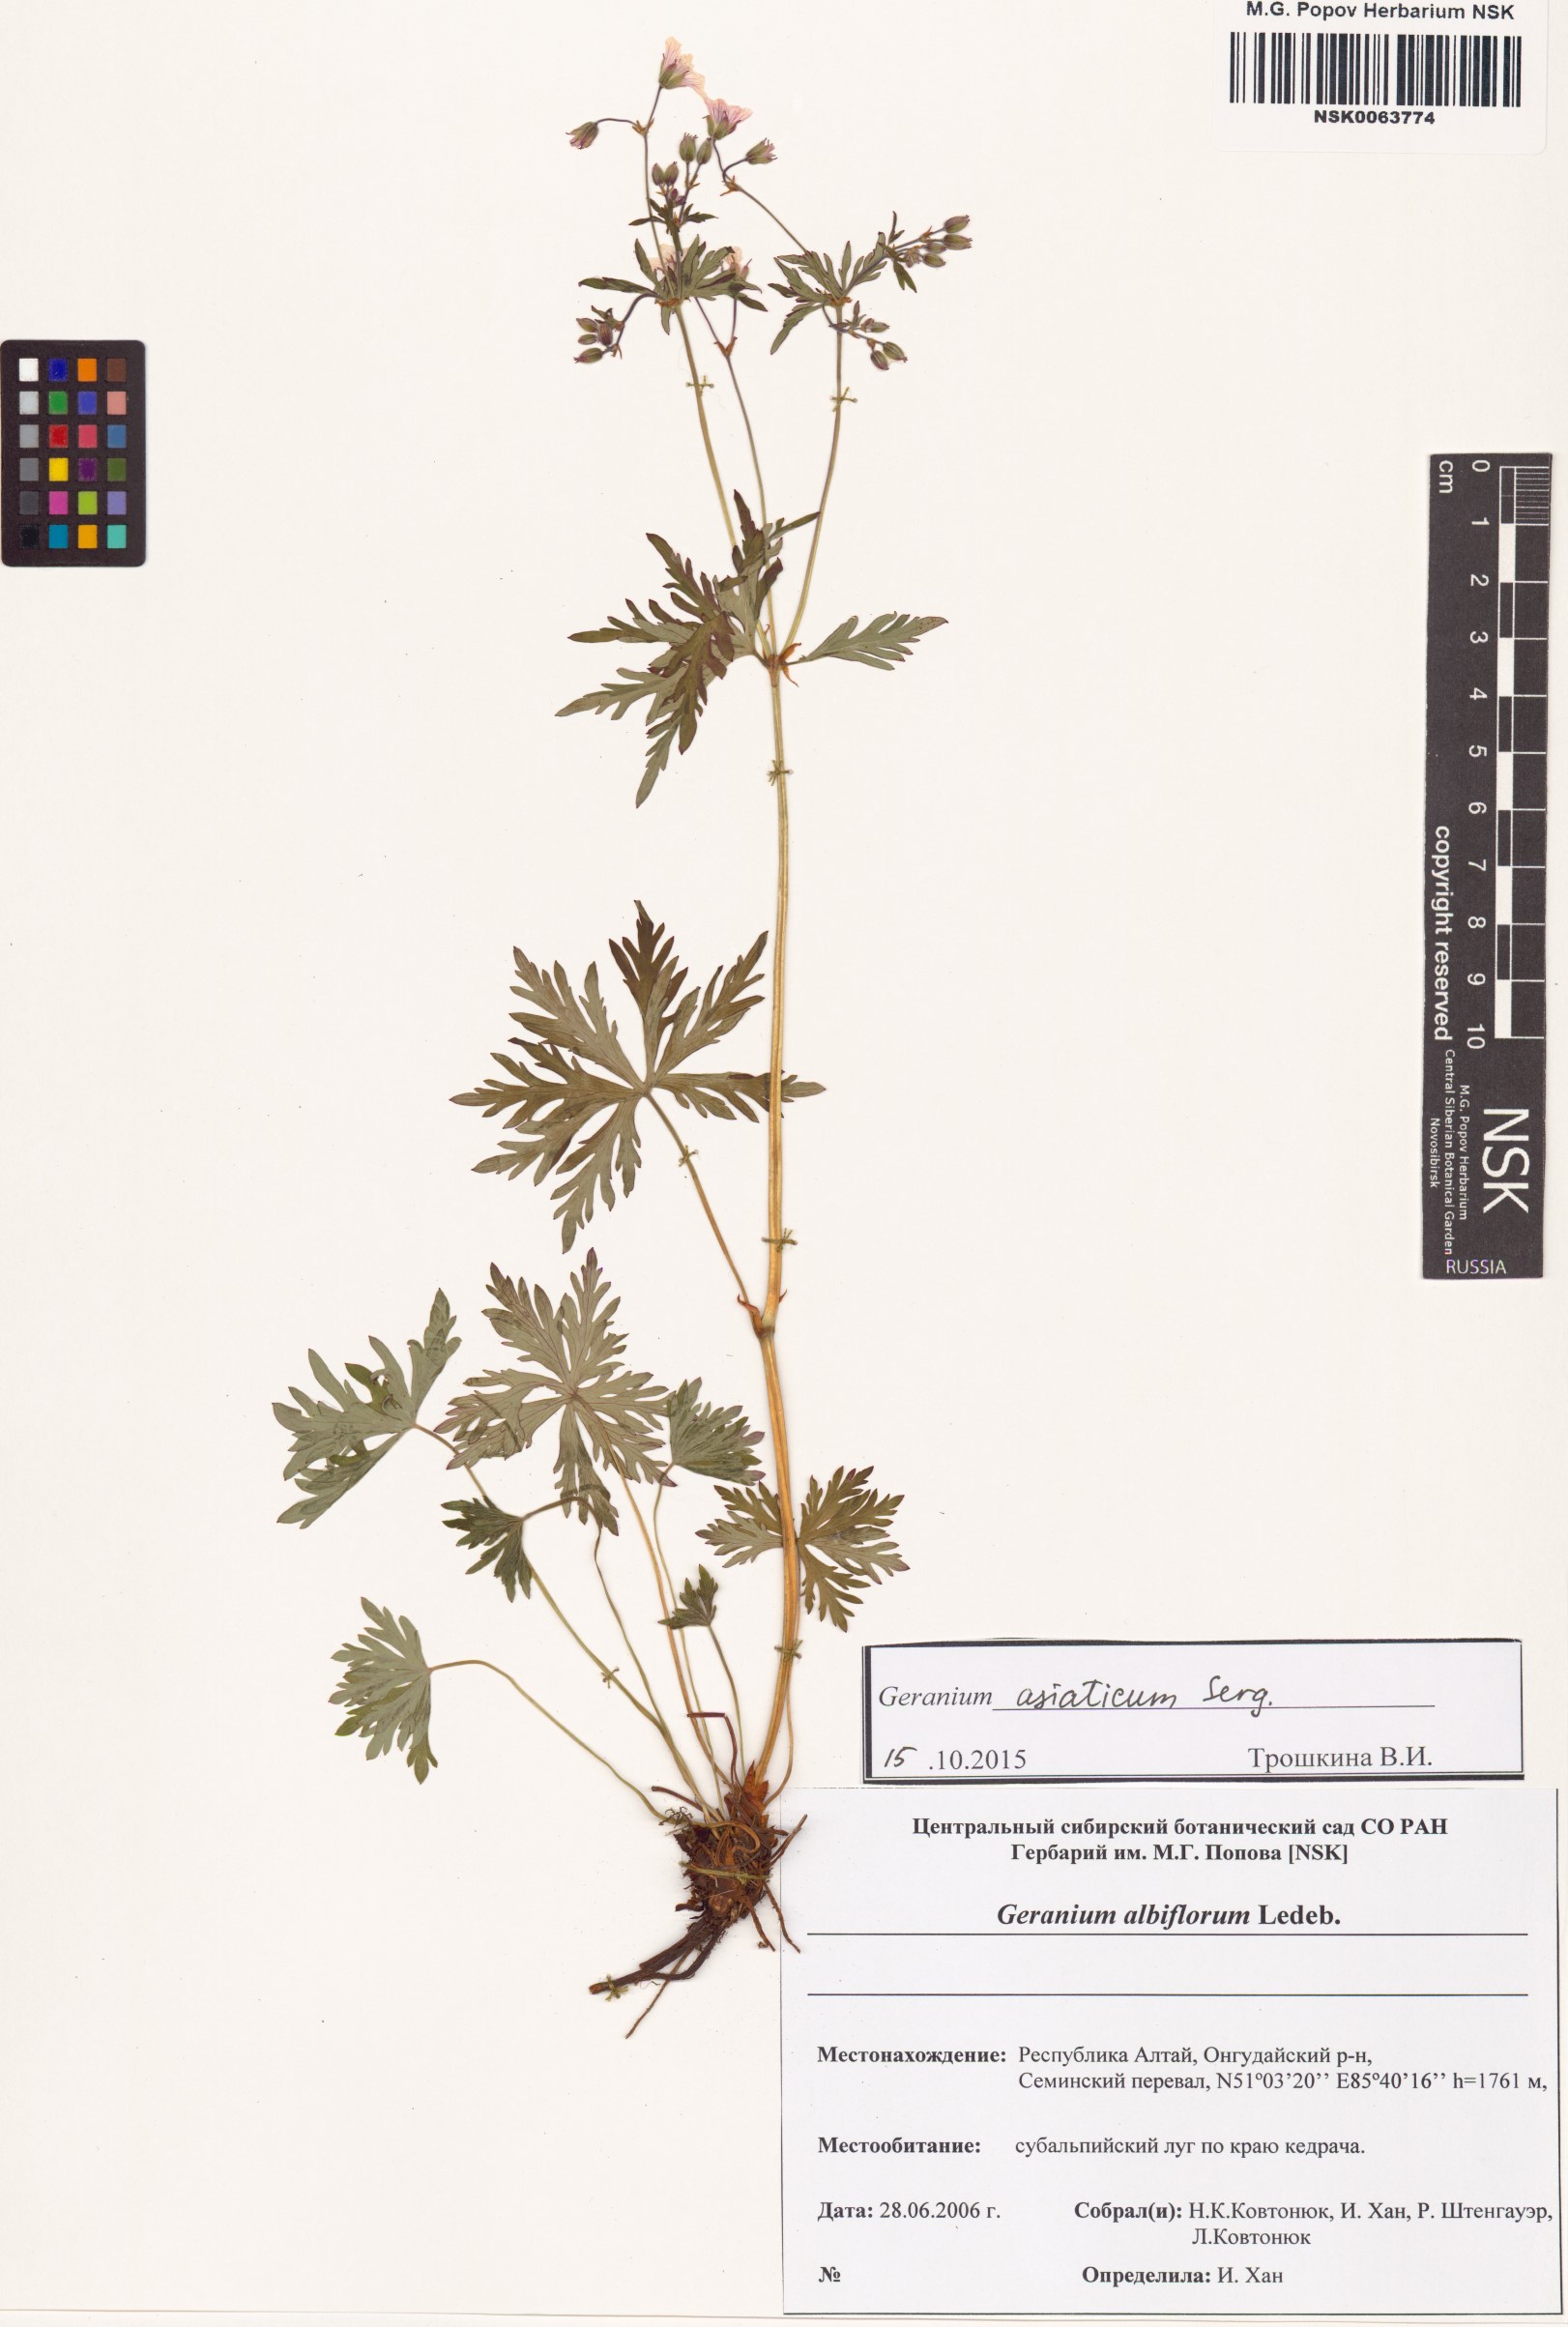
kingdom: Plantae
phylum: Tracheophyta
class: Magnoliopsida
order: Geraniales
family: Geraniaceae
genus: Geranium
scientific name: Geranium pseudosibiricum
